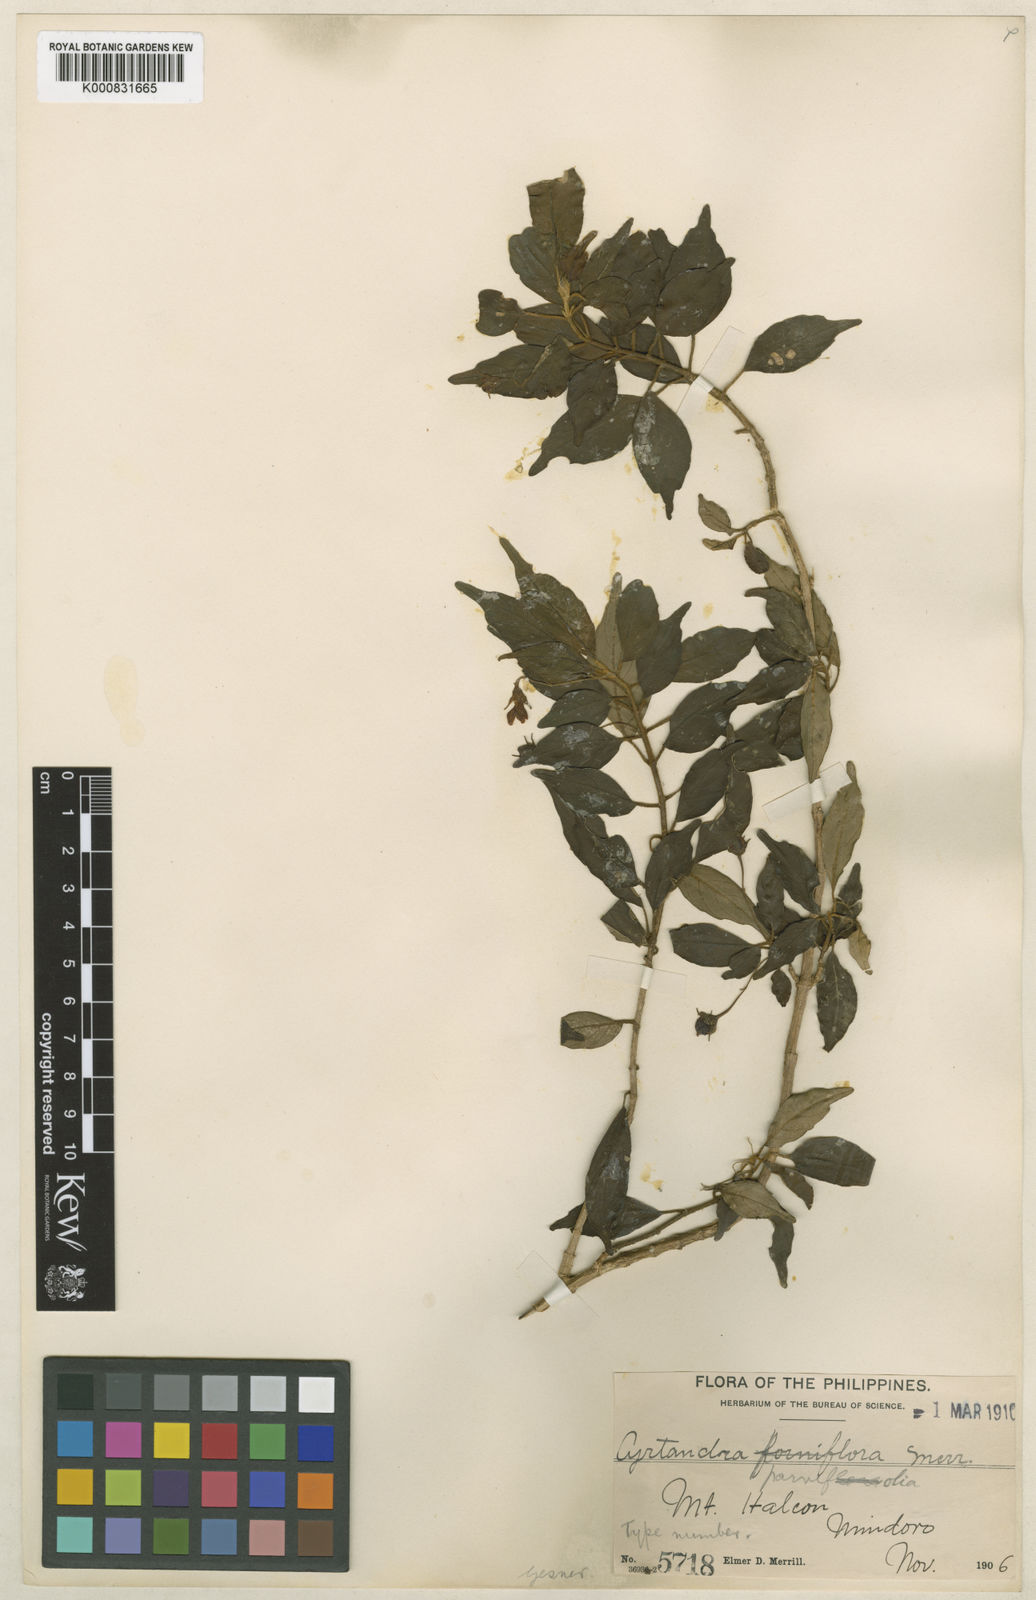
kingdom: Plantae
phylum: Tracheophyta
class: Magnoliopsida
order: Lamiales
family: Gesneriaceae
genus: Cyrtandra
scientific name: Cyrtandra parvifolia
